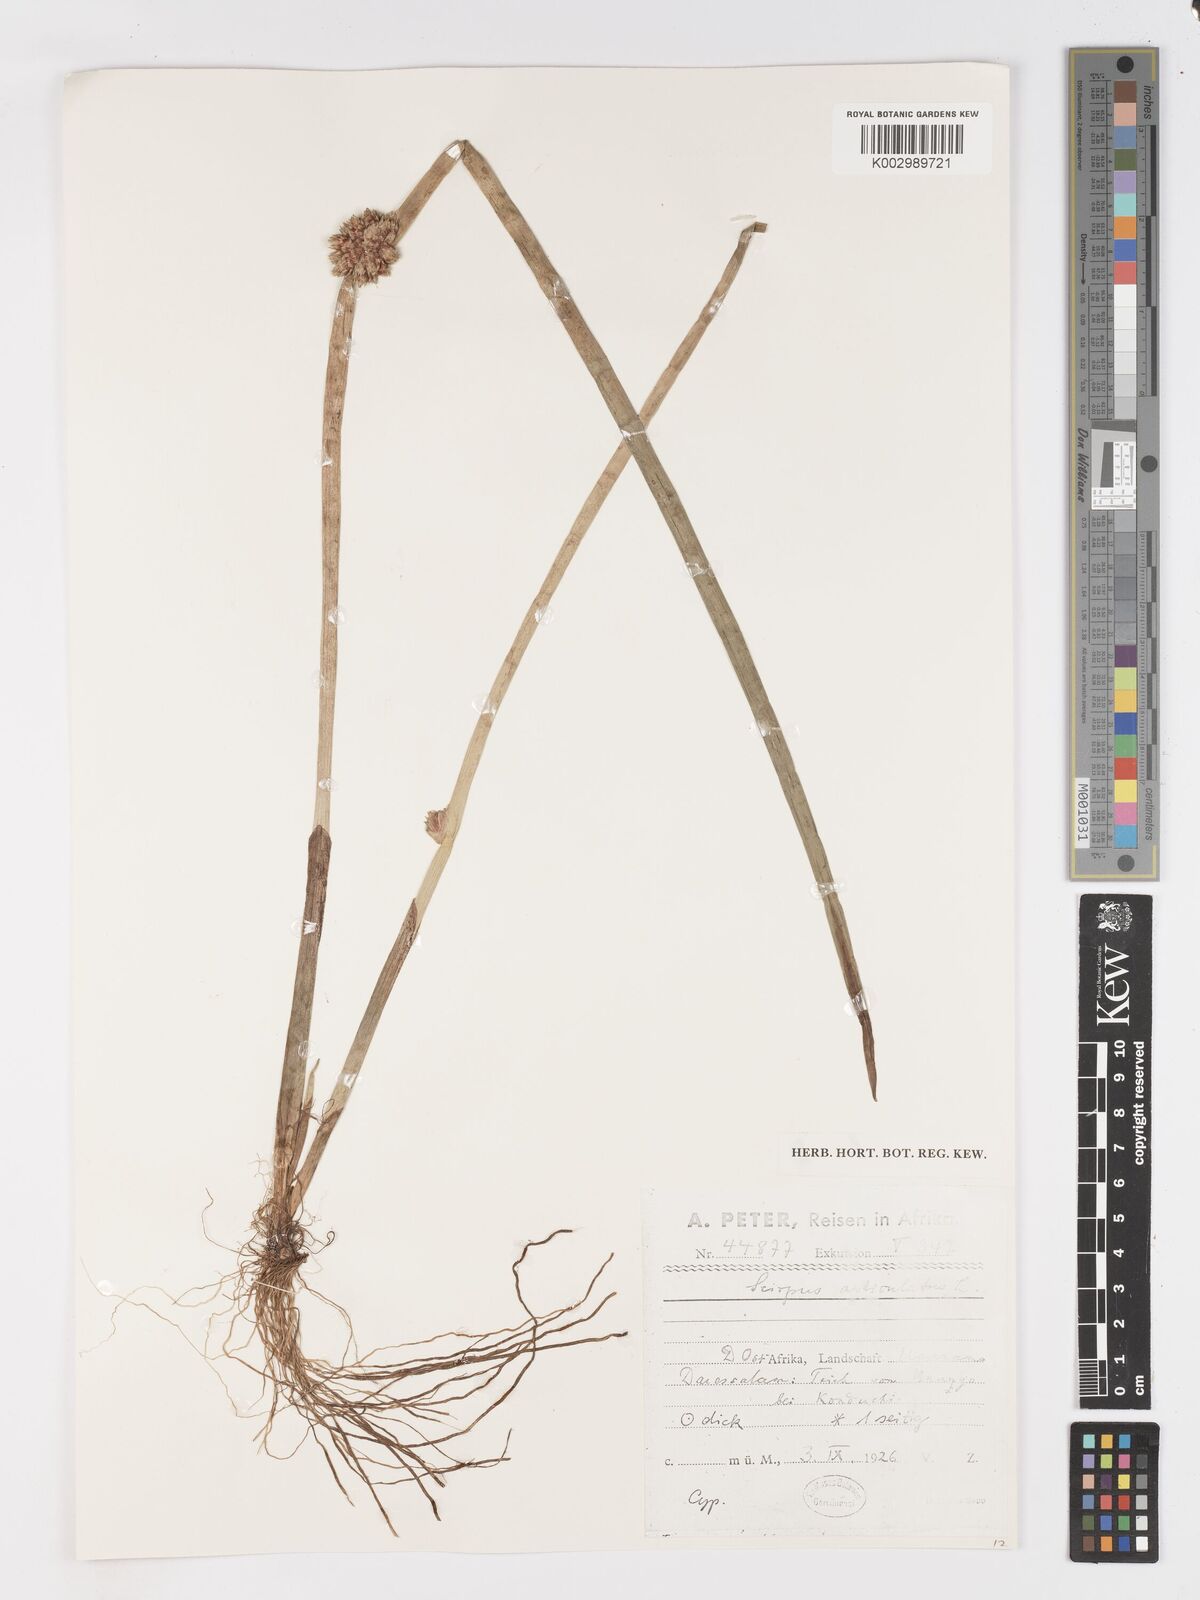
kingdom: Plantae
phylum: Tracheophyta
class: Liliopsida
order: Poales
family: Cyperaceae
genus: Schoenoplectiella
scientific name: Schoenoplectiella articulata
